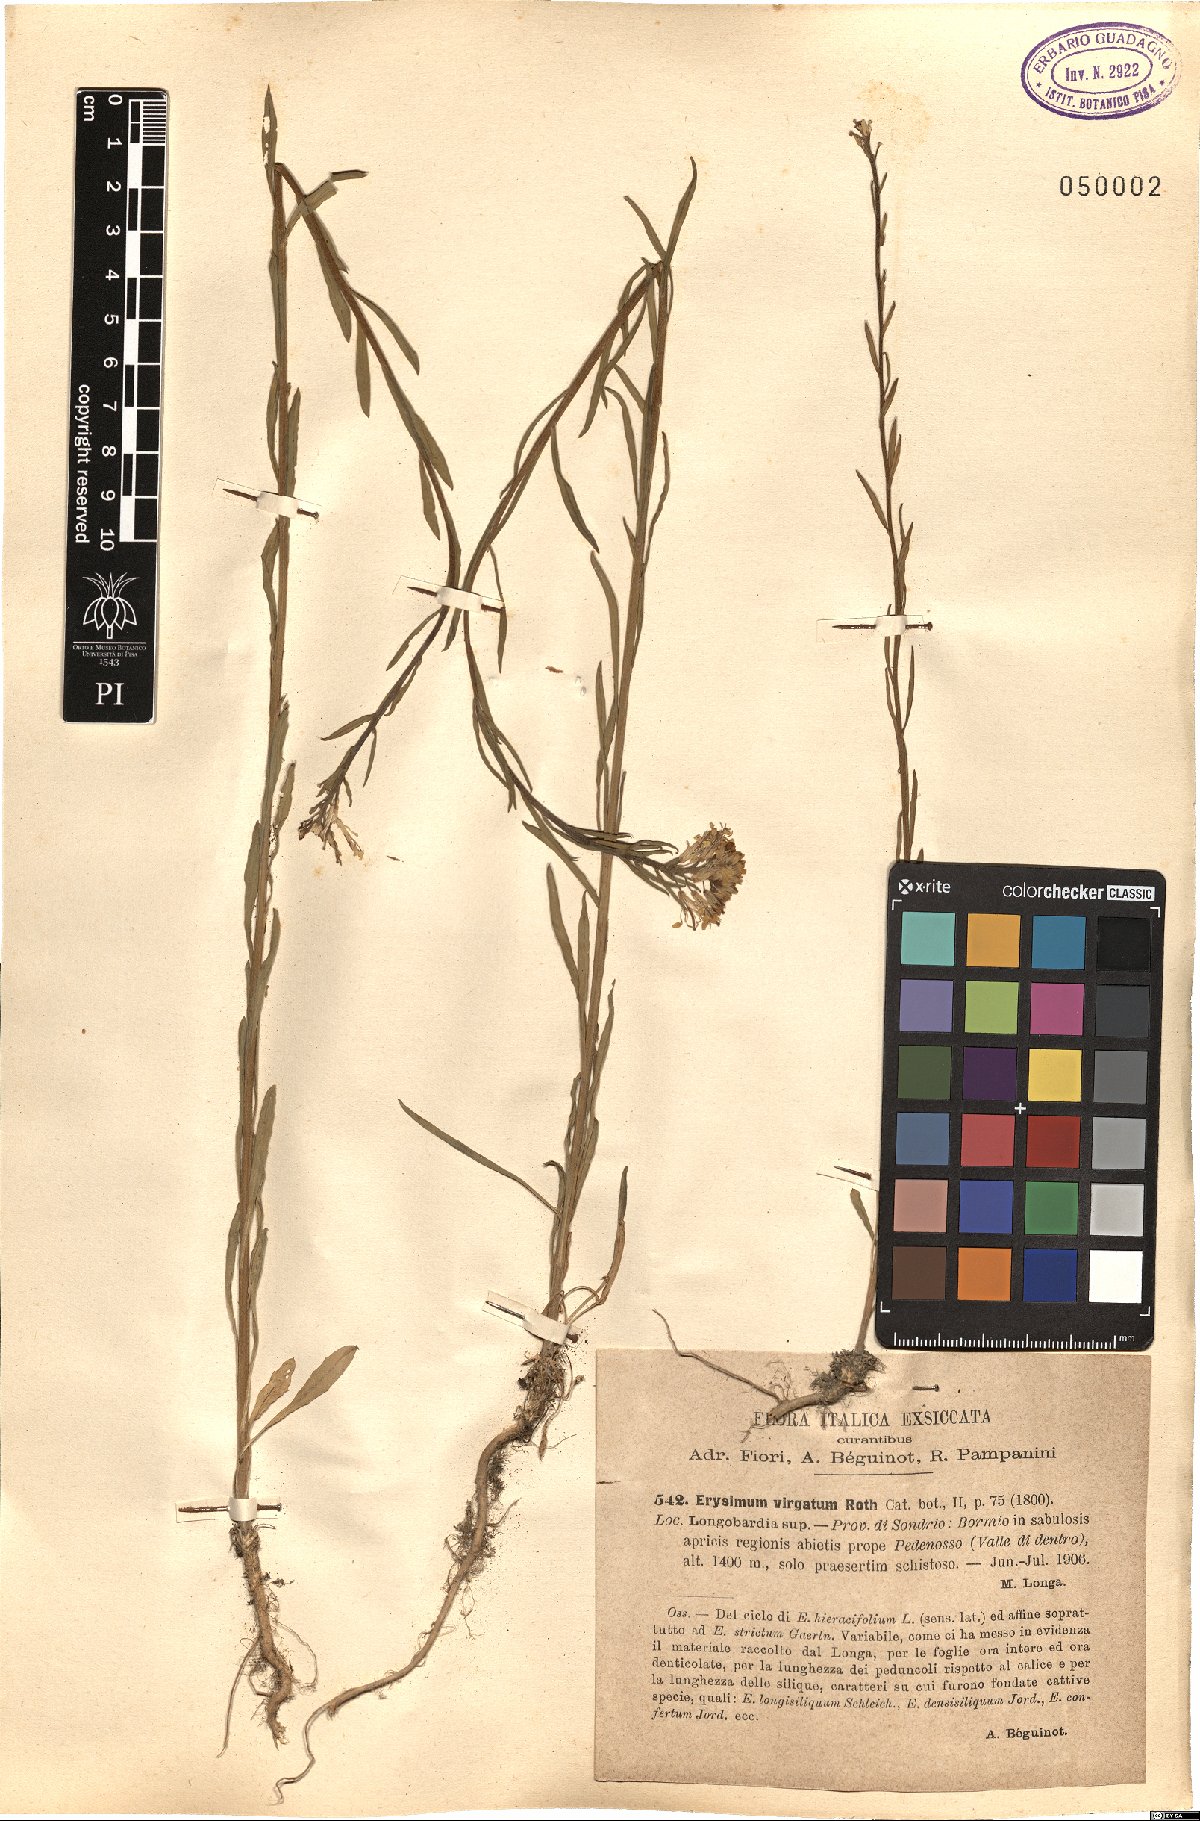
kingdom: Plantae
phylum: Tracheophyta
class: Magnoliopsida
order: Brassicales
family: Brassicaceae
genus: Erysimum
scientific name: Erysimum virgatum
